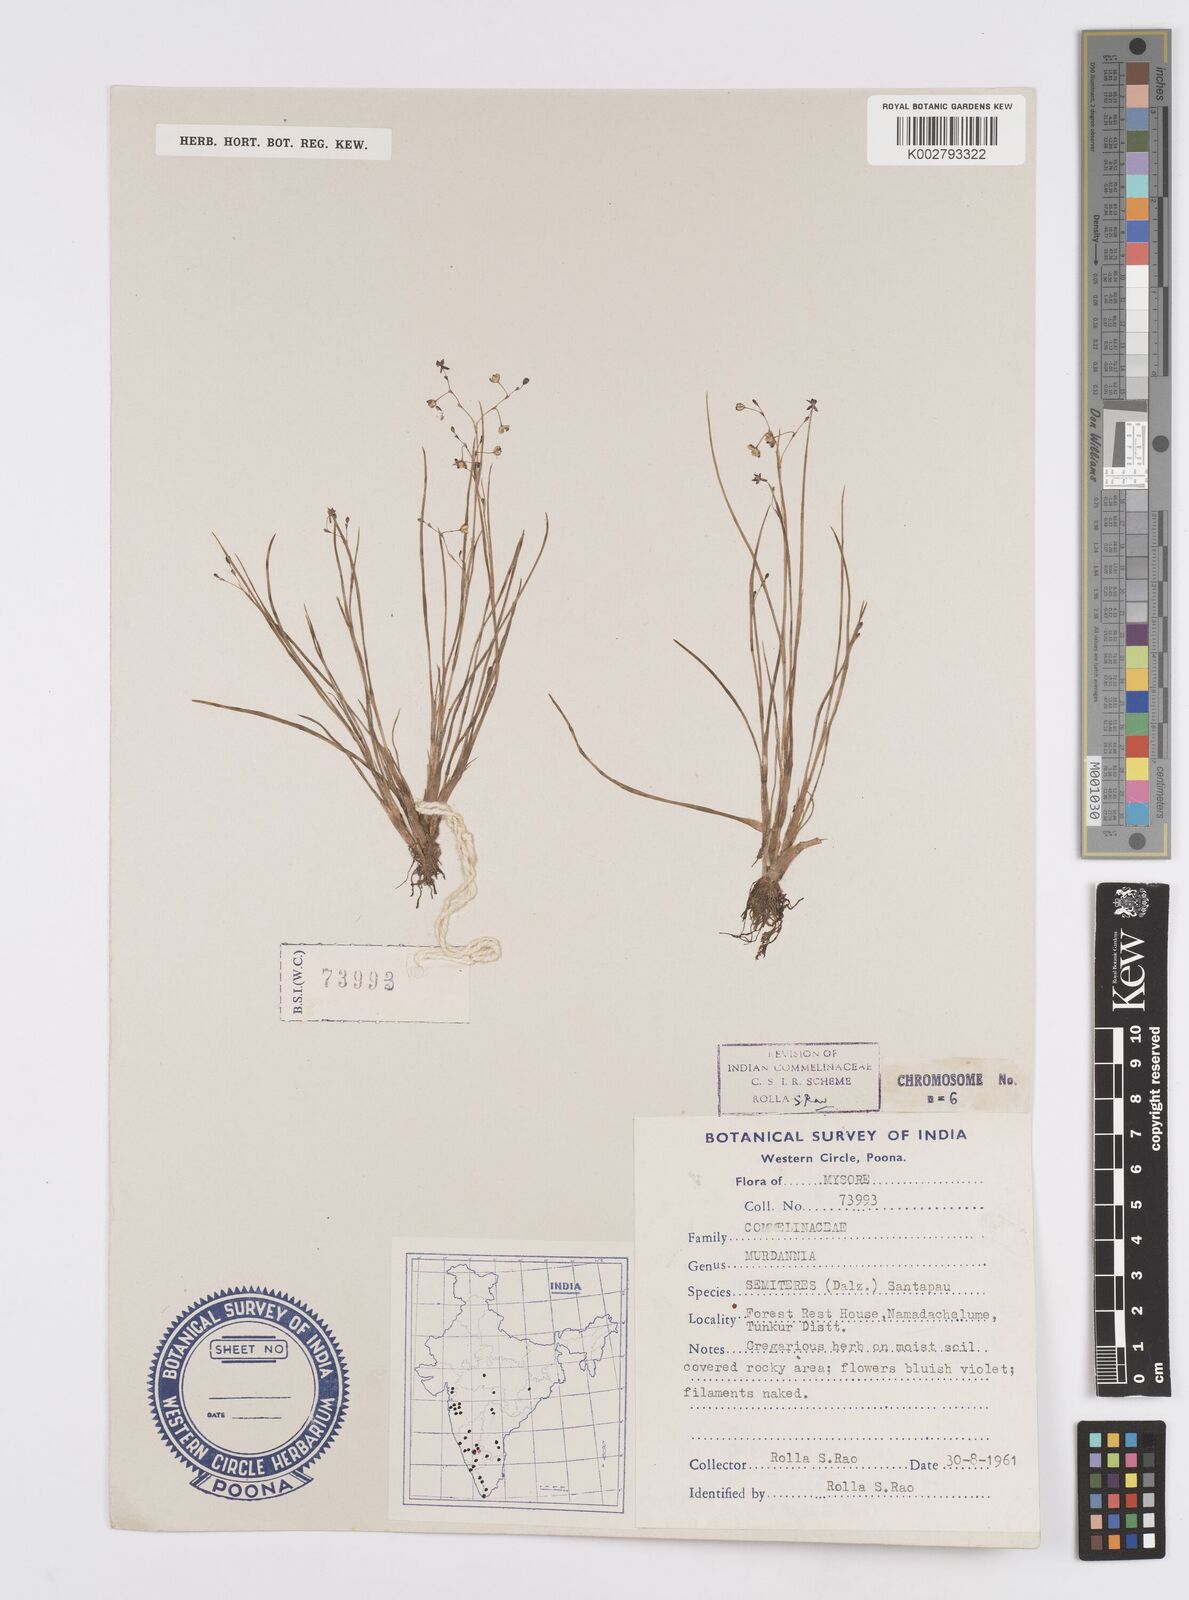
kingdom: Plantae
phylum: Tracheophyta
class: Liliopsida
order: Commelinales
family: Commelinaceae
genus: Murdannia
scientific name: Murdannia semiteres
